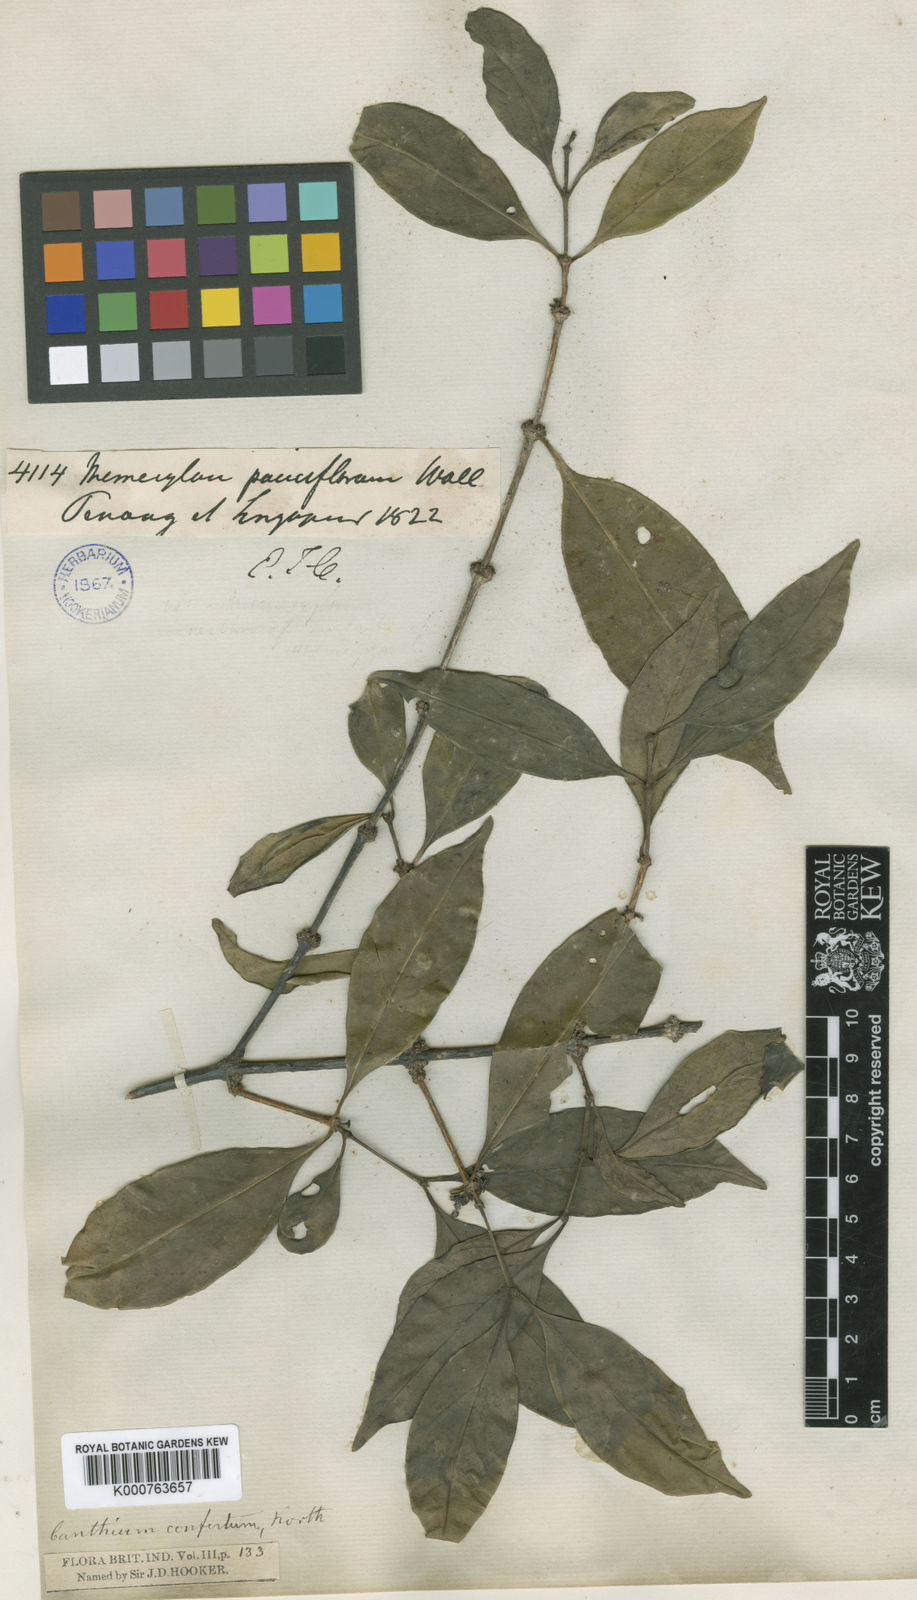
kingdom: Plantae
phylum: Tracheophyta
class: Magnoliopsida
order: Gentianales
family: Rubiaceae
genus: Dibridsonia
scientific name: Dibridsonia conferta
